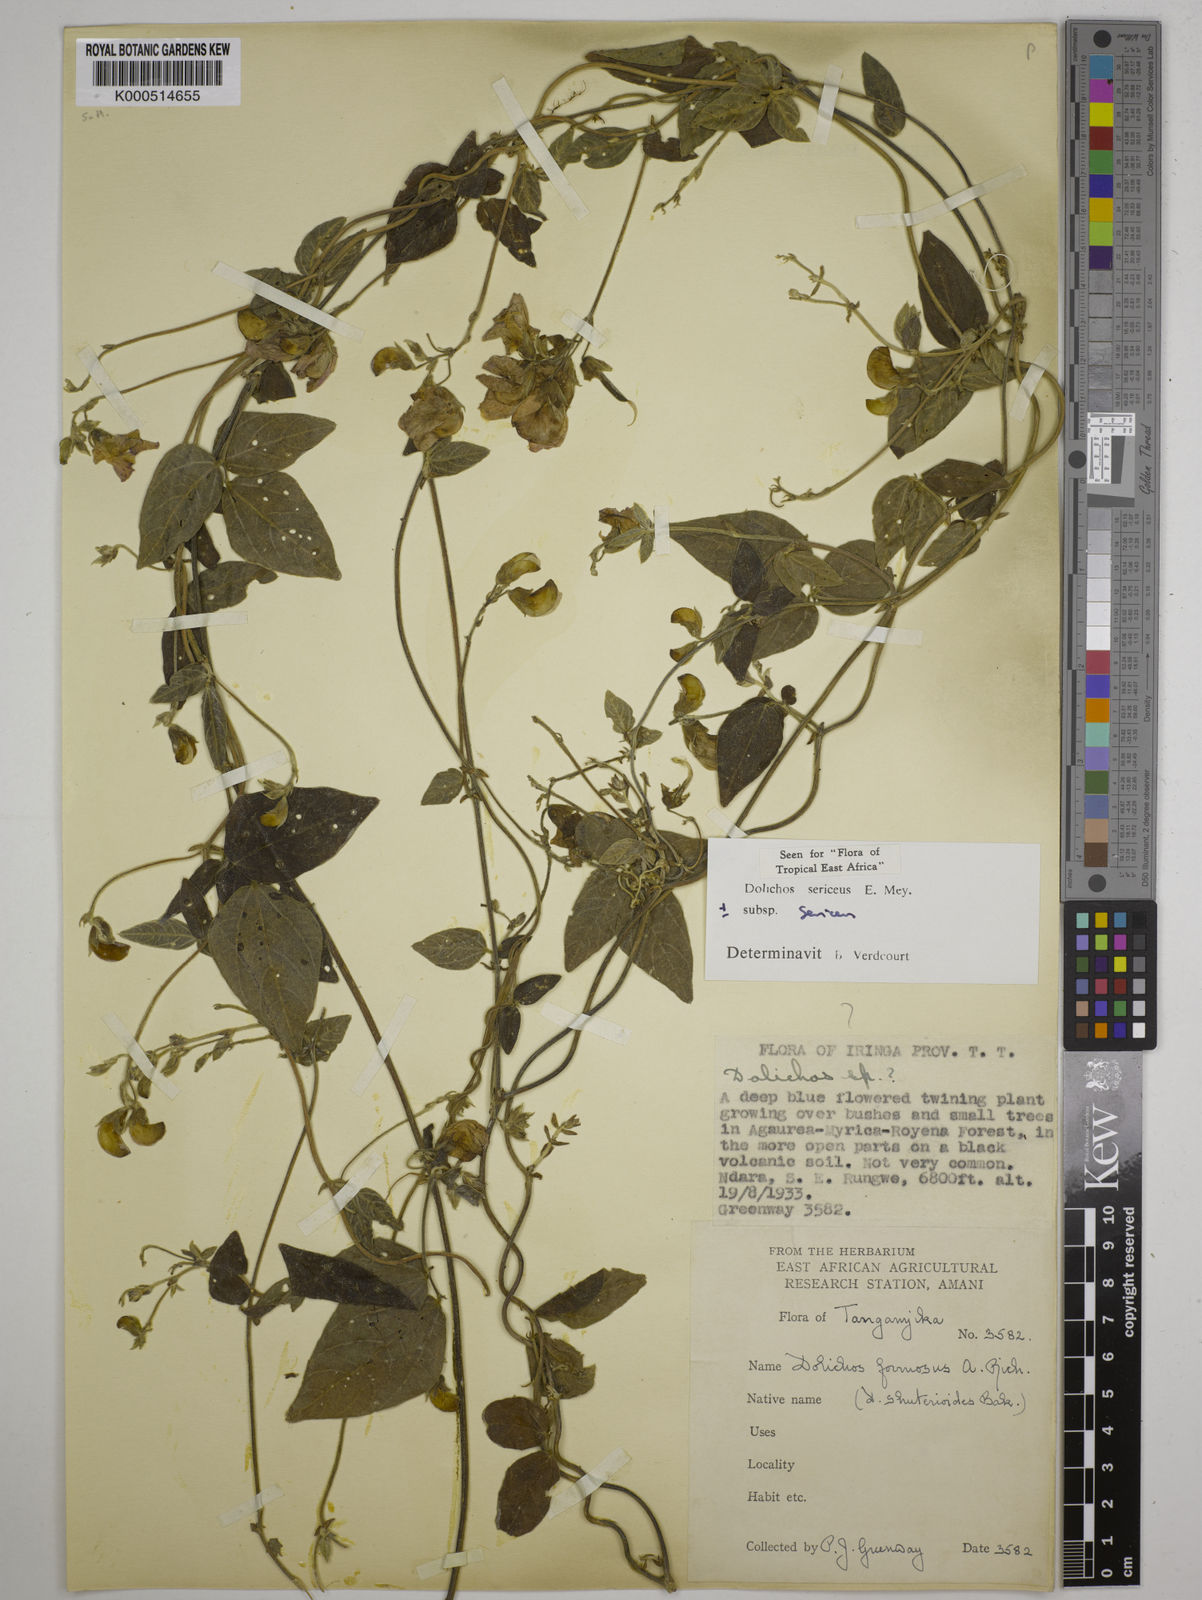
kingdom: Plantae
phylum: Tracheophyta
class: Magnoliopsida
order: Fabales
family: Fabaceae
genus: Dolichos
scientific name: Dolichos sericeus
